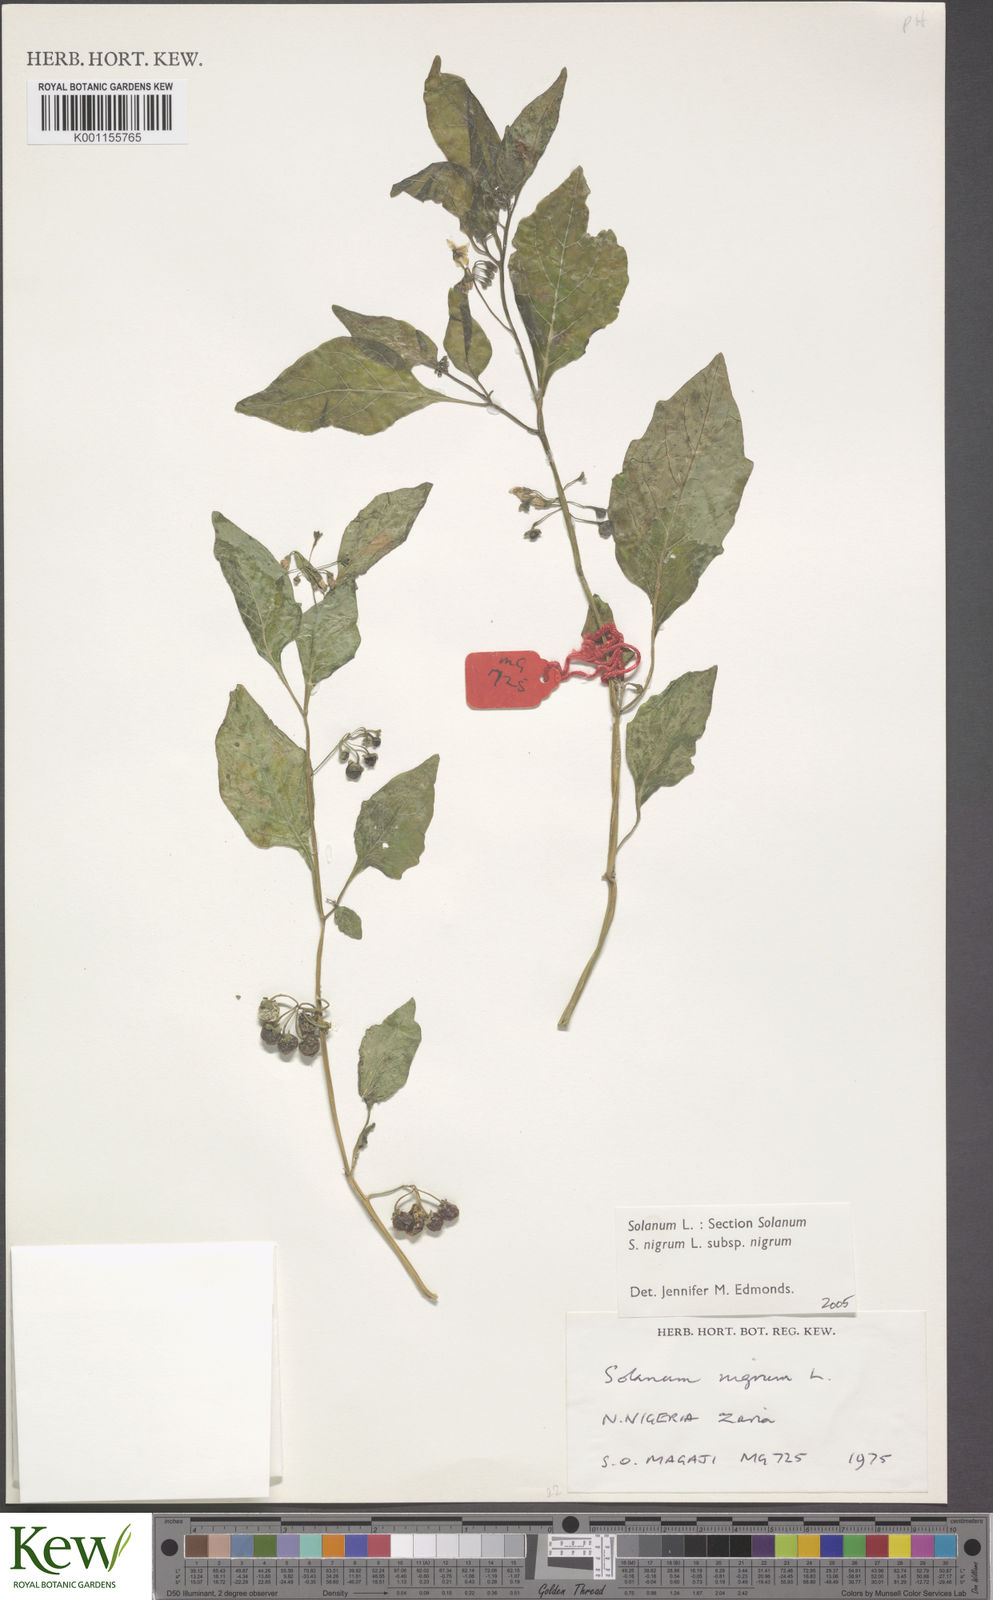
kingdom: Plantae
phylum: Tracheophyta
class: Magnoliopsida
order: Solanales
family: Solanaceae
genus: Solanum
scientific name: Solanum scabrum
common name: Garden-huckleberry
